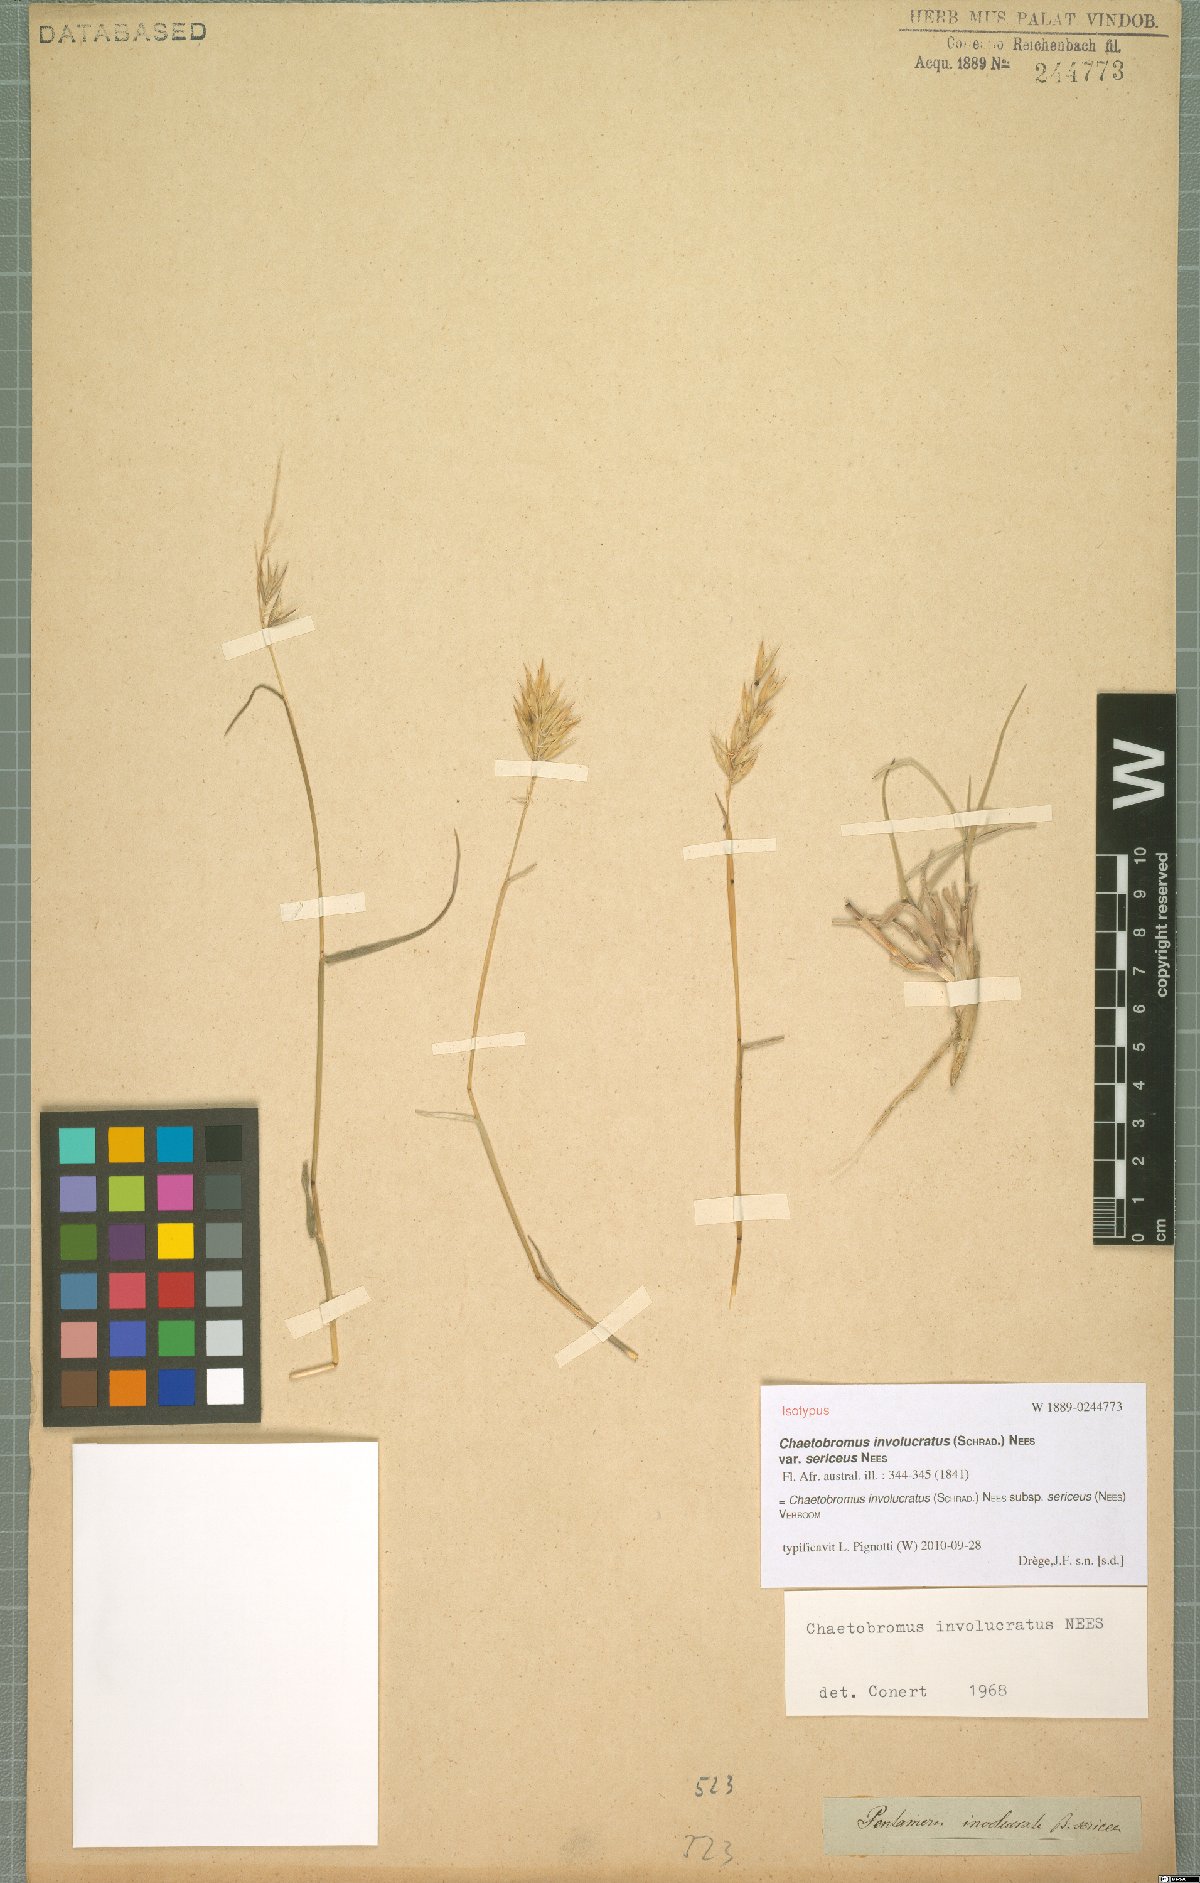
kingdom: Plantae
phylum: Tracheophyta
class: Liliopsida
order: Poales
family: Poaceae
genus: Chaetobromus
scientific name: Chaetobromus involucratus
